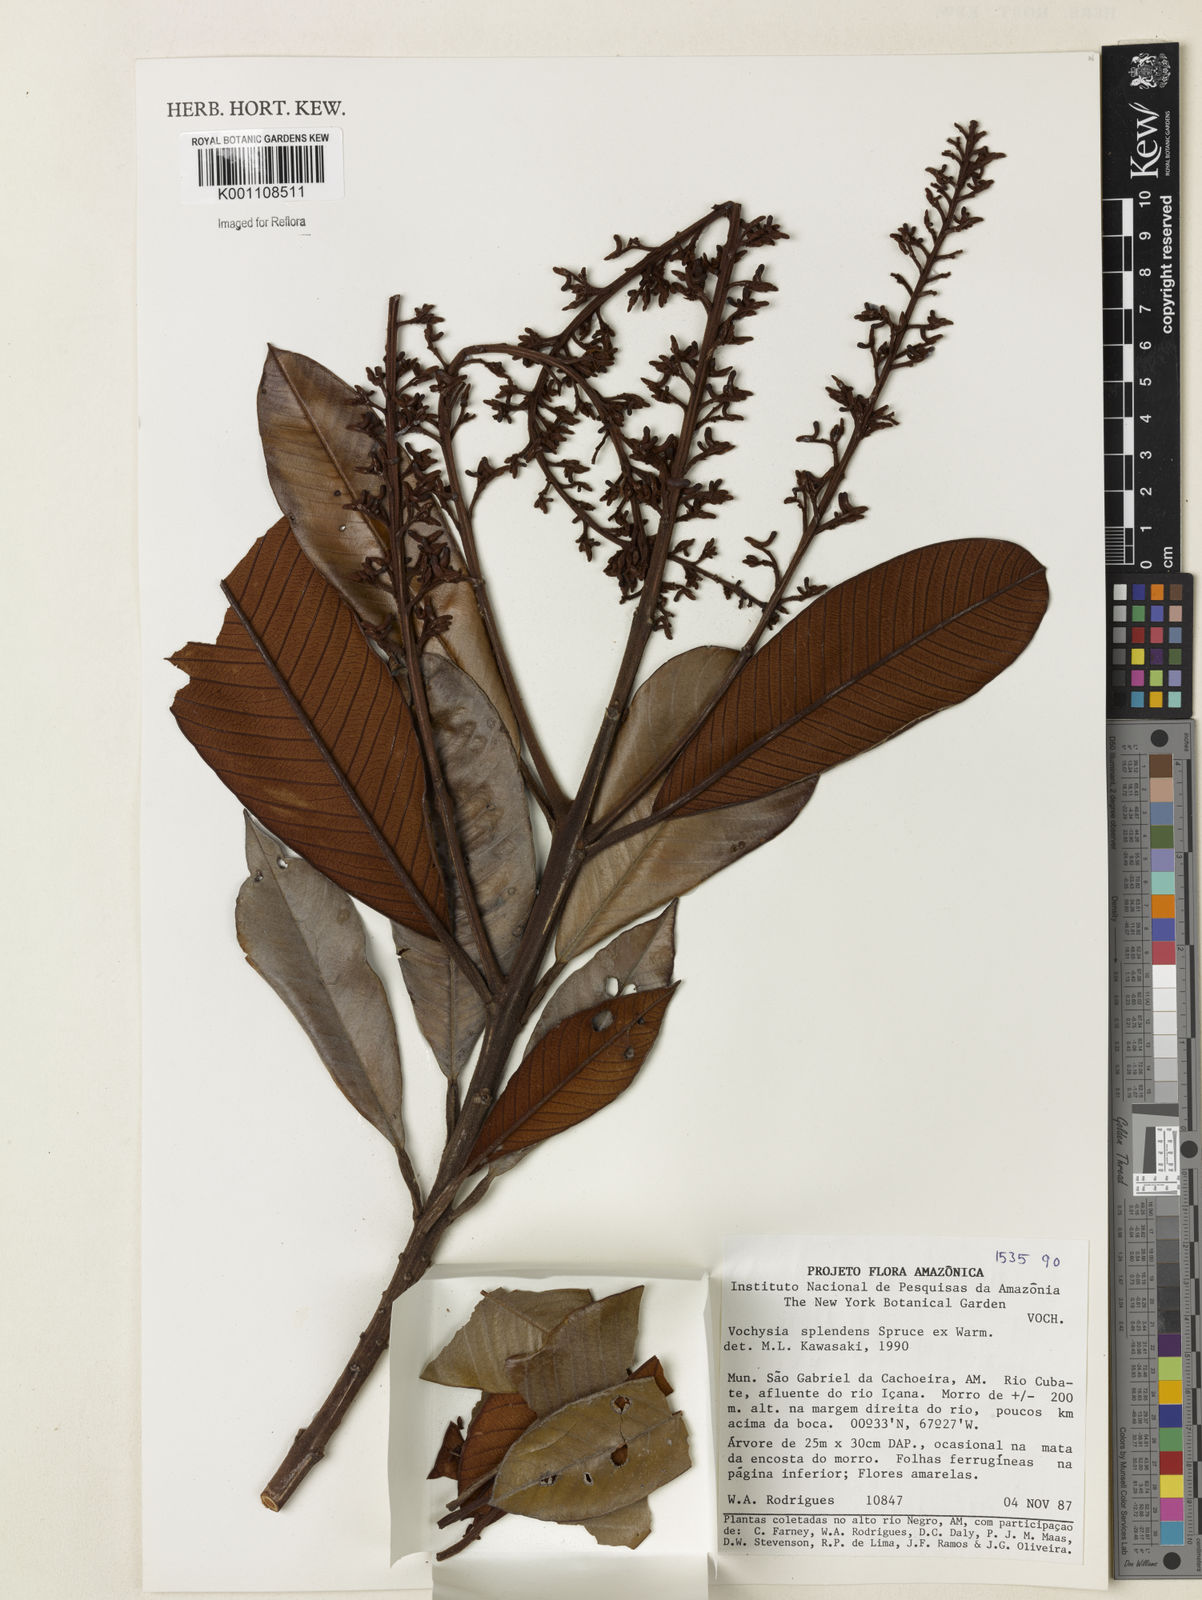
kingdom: Plantae
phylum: Tracheophyta
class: Magnoliopsida
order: Myrtales
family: Vochysiaceae
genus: Vochysia
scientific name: Vochysia splendens
